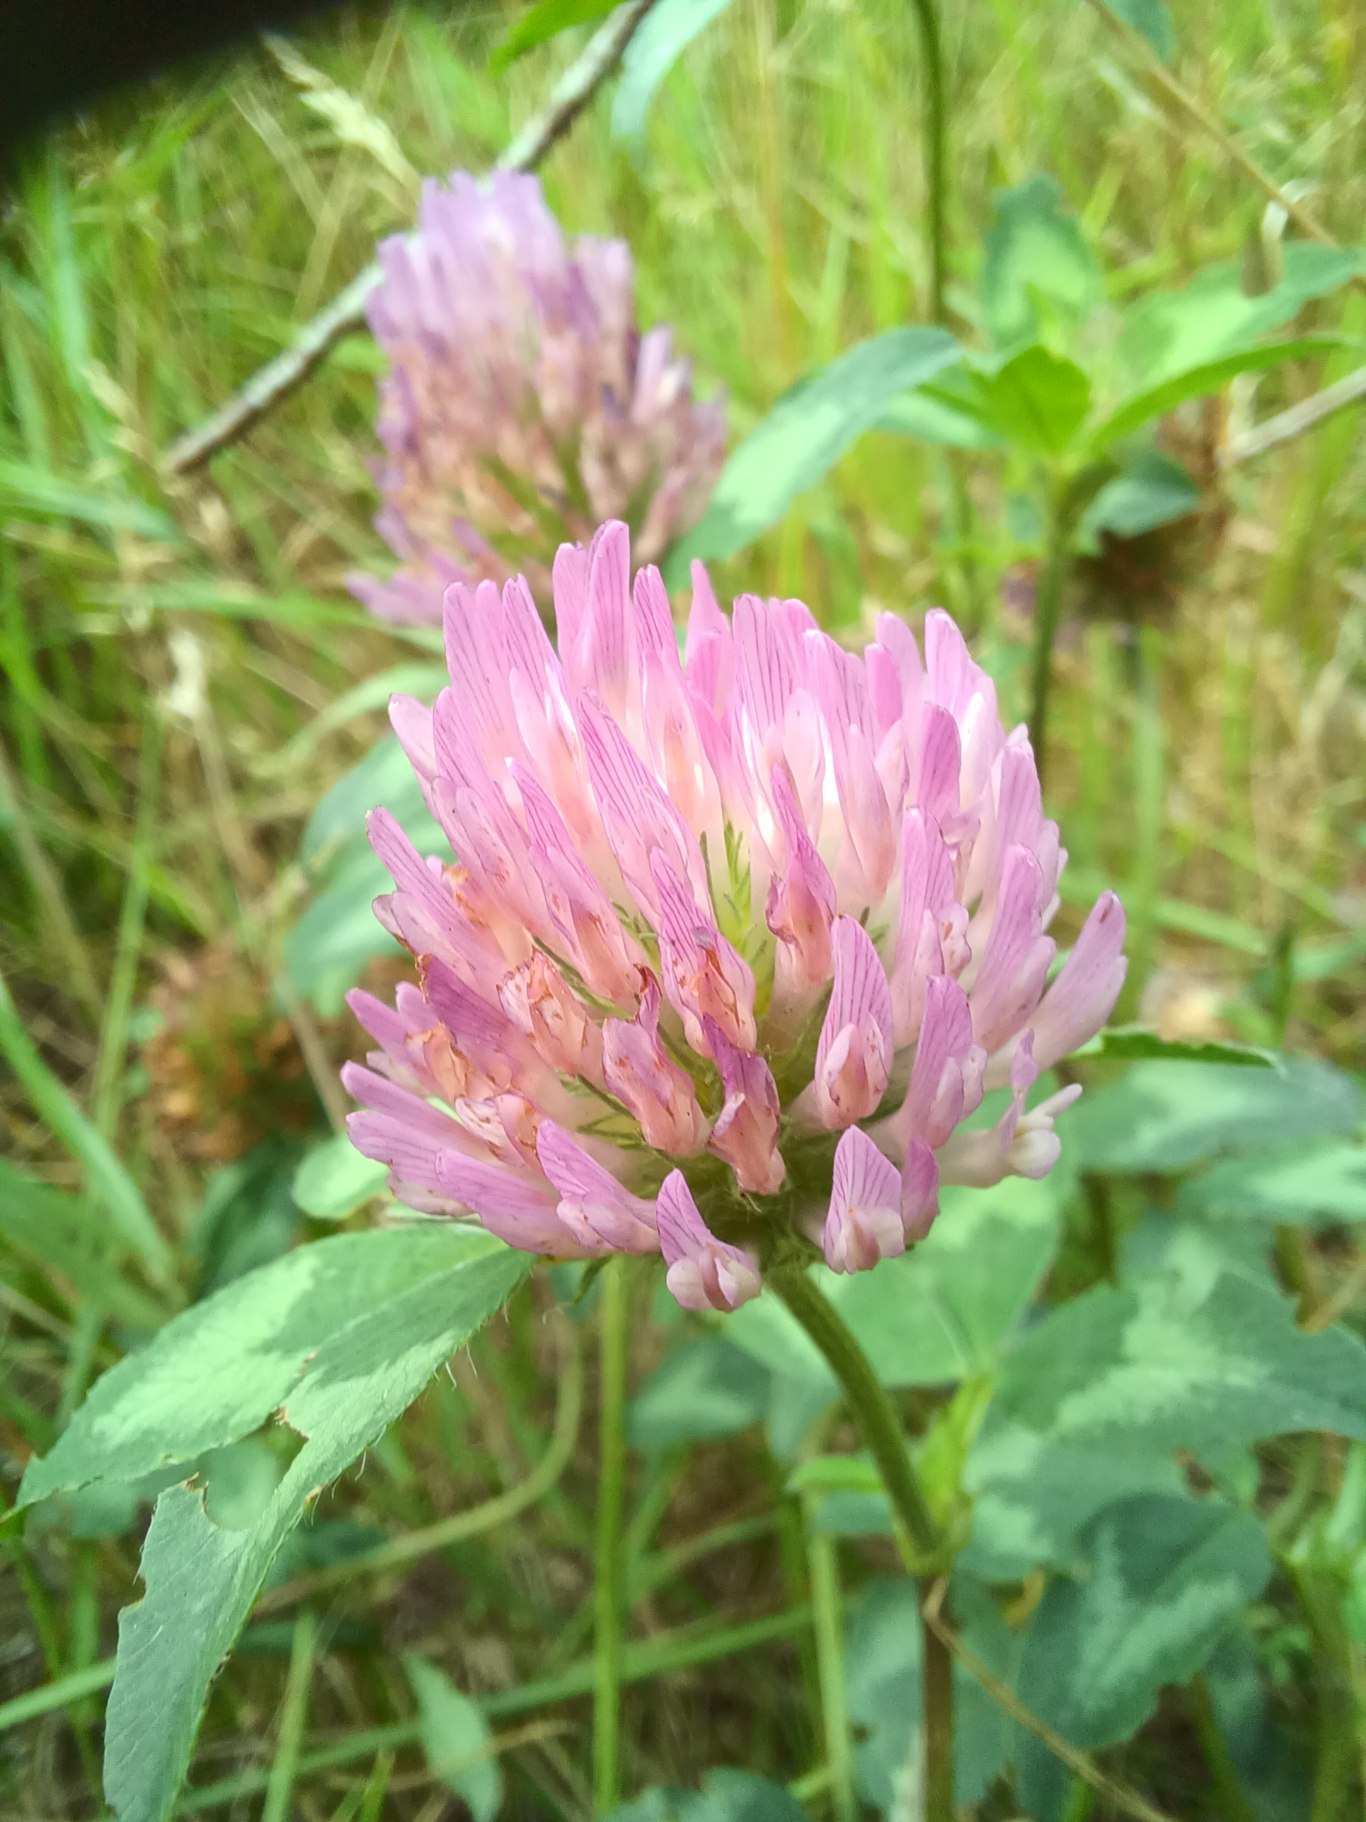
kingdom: Plantae
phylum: Tracheophyta
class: Magnoliopsida
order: Fabales
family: Fabaceae
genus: Trifolium
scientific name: Trifolium pratense
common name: Rød-kløver
